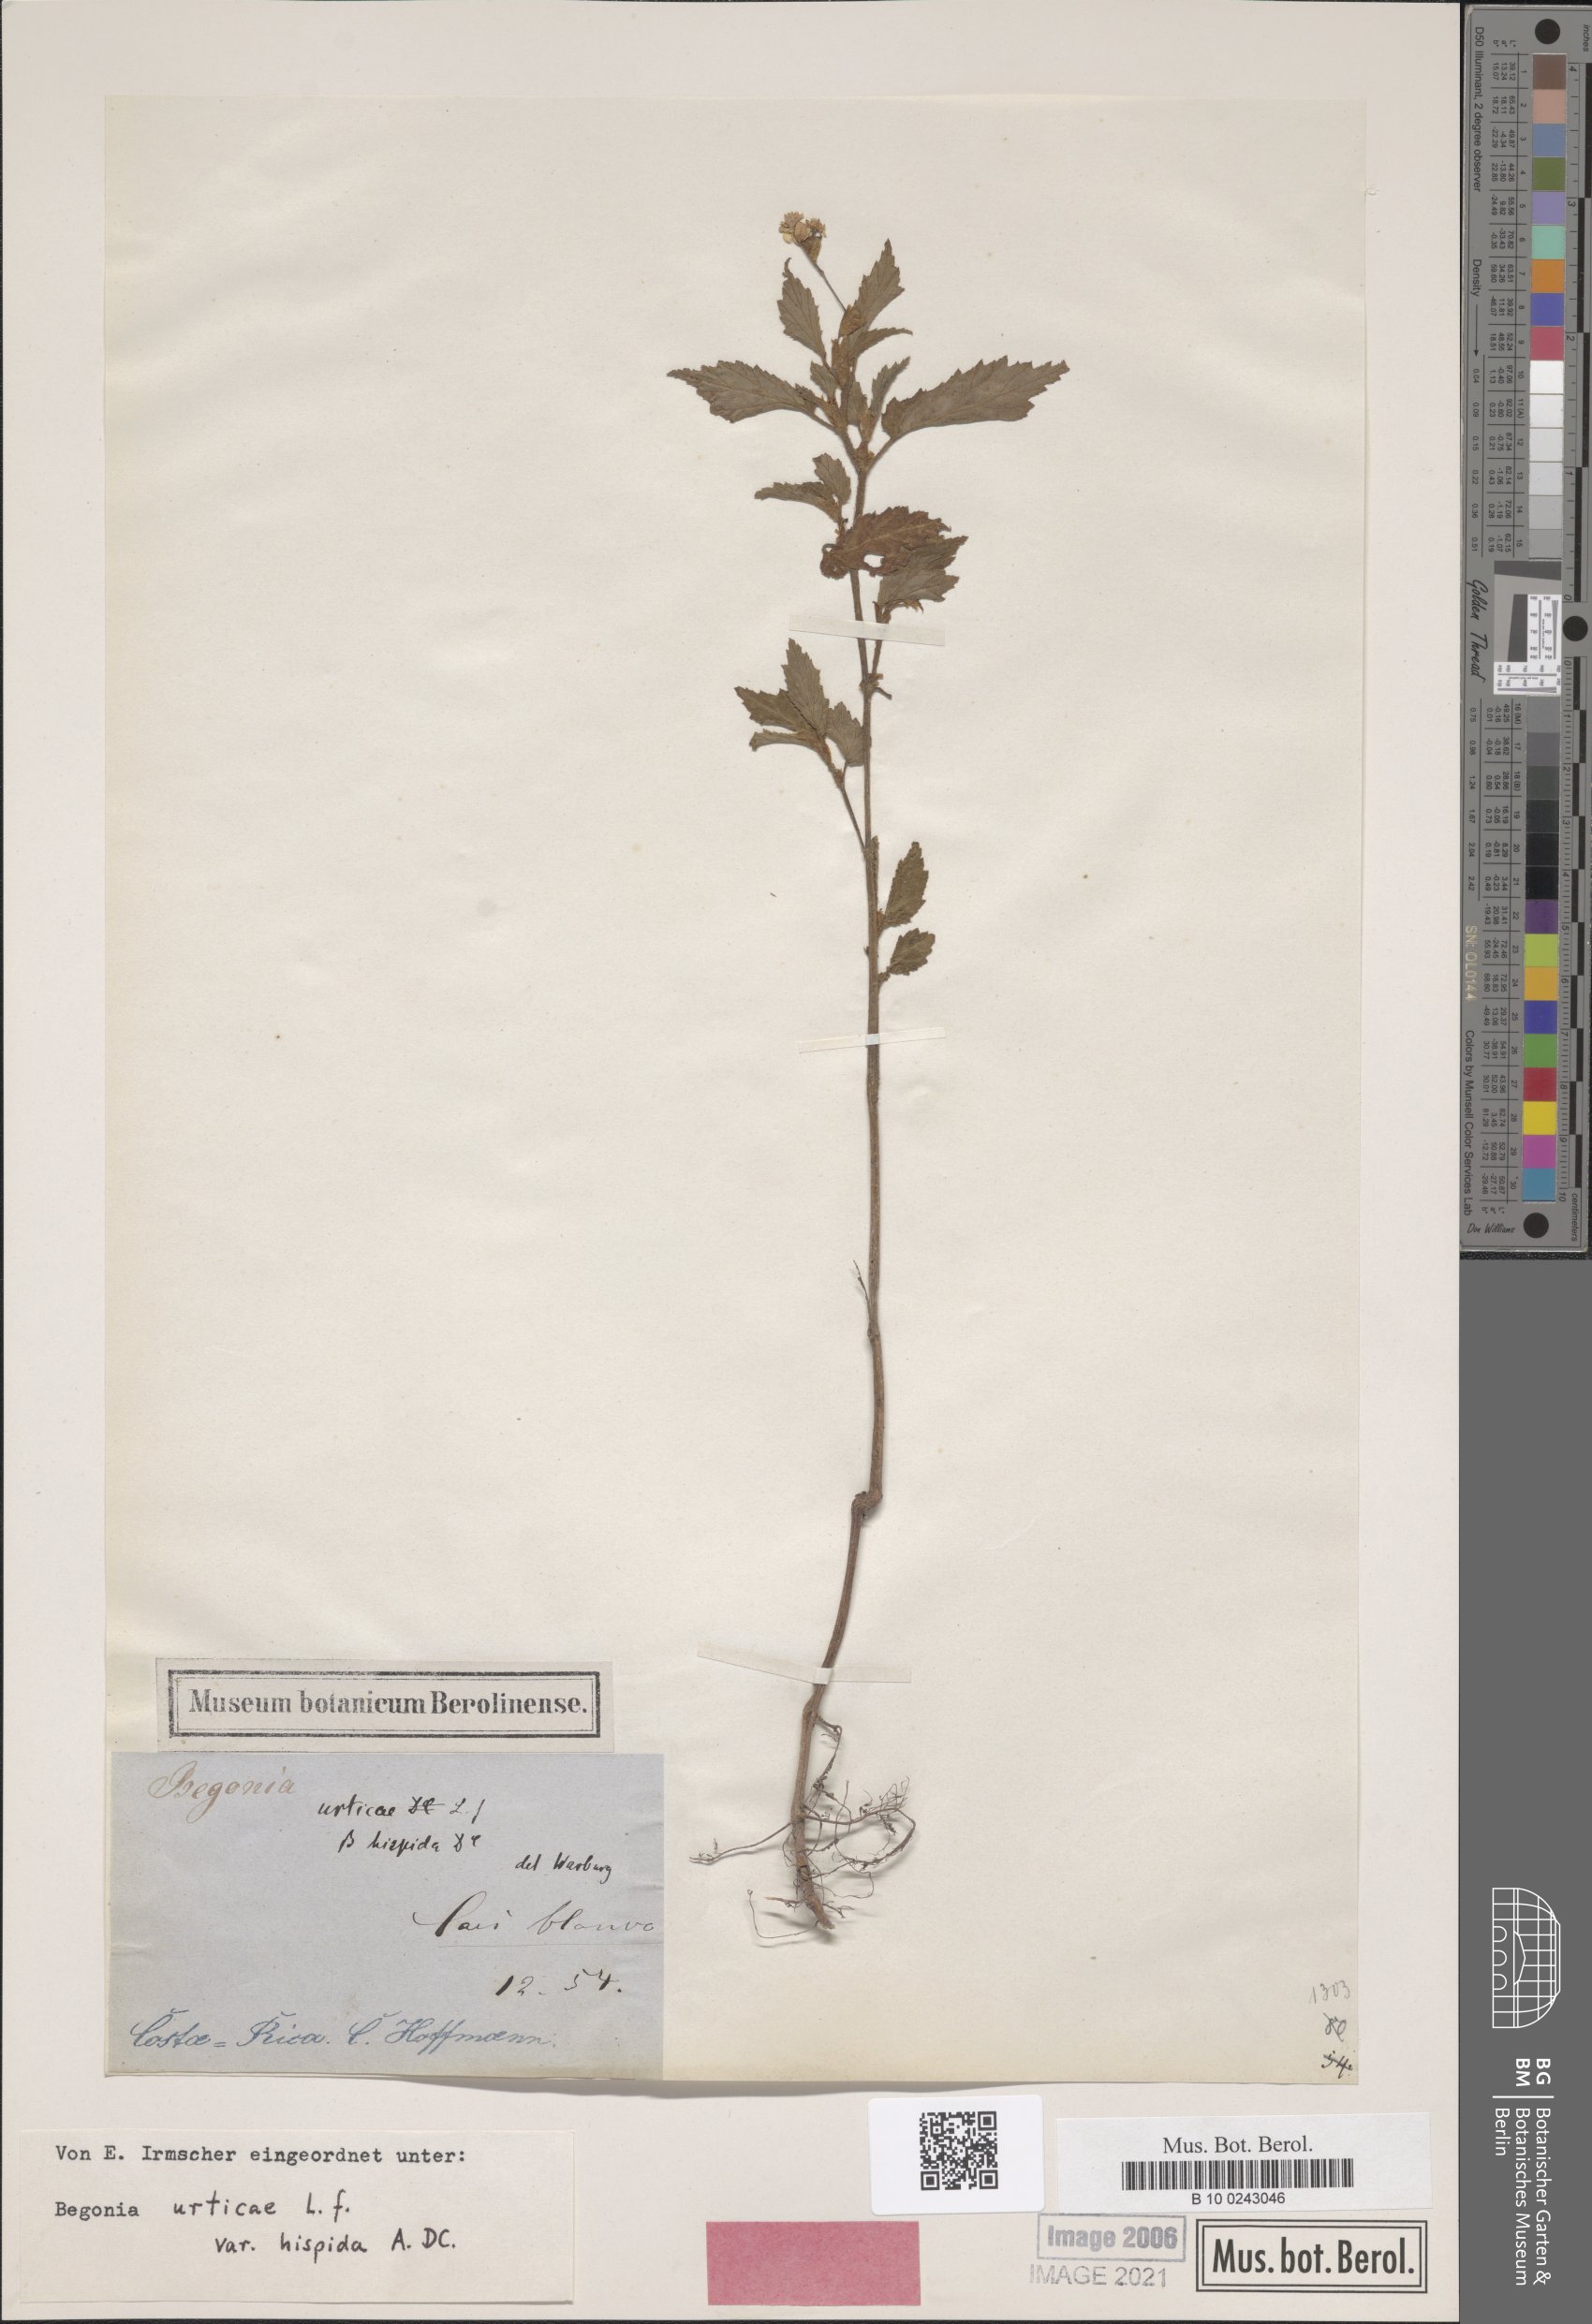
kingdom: Plantae
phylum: Tracheophyta
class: Magnoliopsida
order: Cucurbitales
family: Begoniaceae
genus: Begonia
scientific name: Begonia urticae
